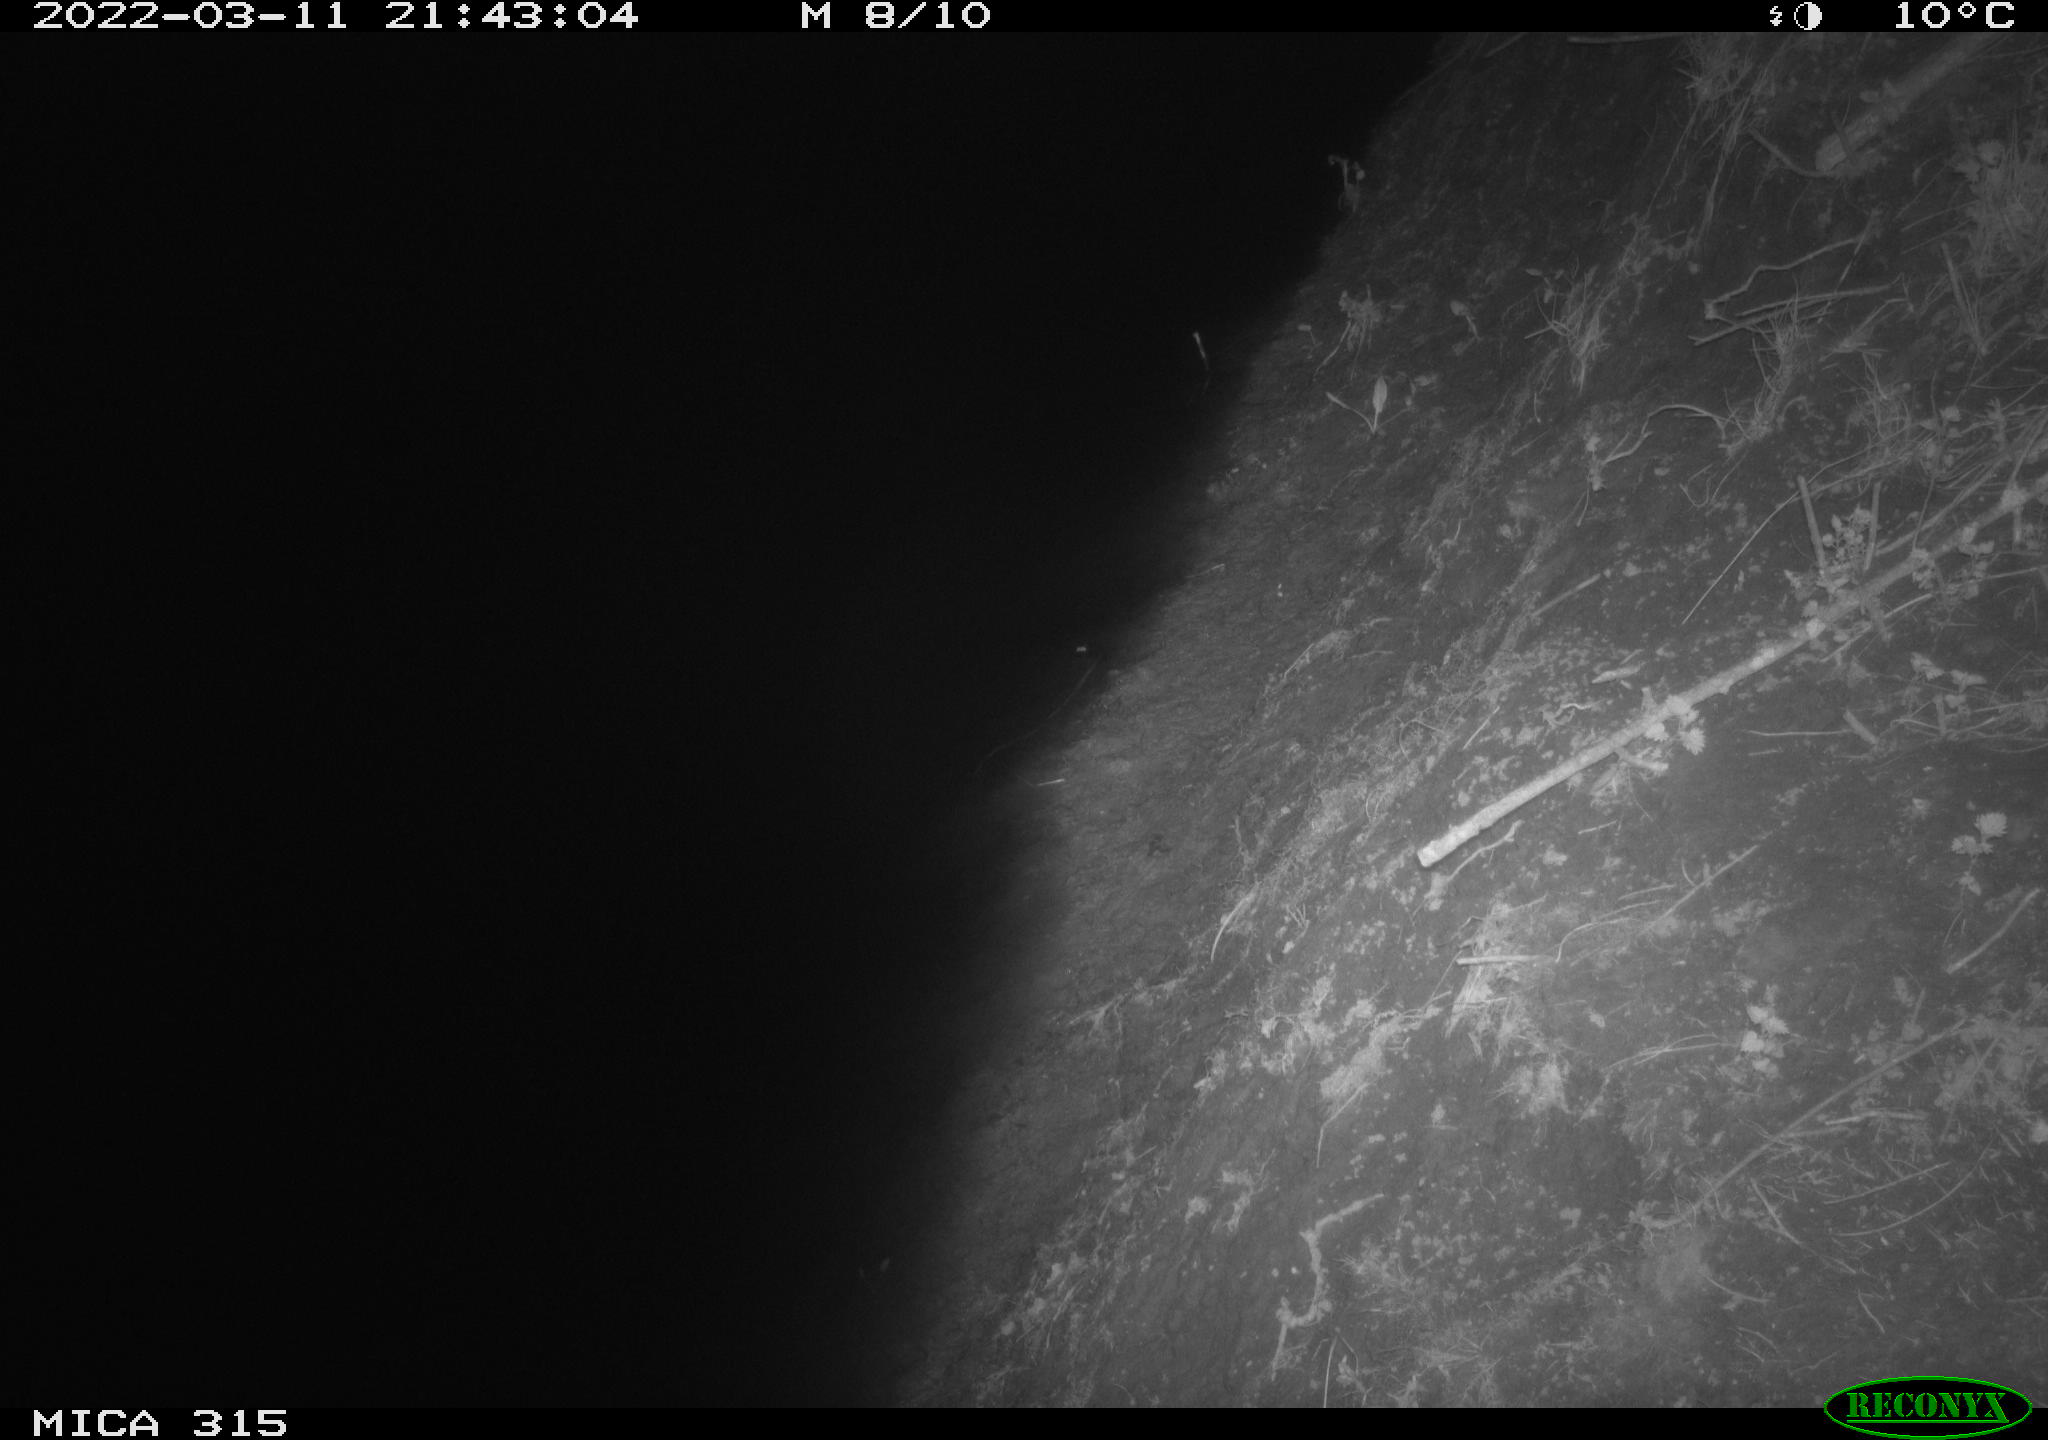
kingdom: Animalia
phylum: Chordata
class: Mammalia
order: Rodentia
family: Muridae
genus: Rattus
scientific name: Rattus norvegicus
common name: Brown rat
